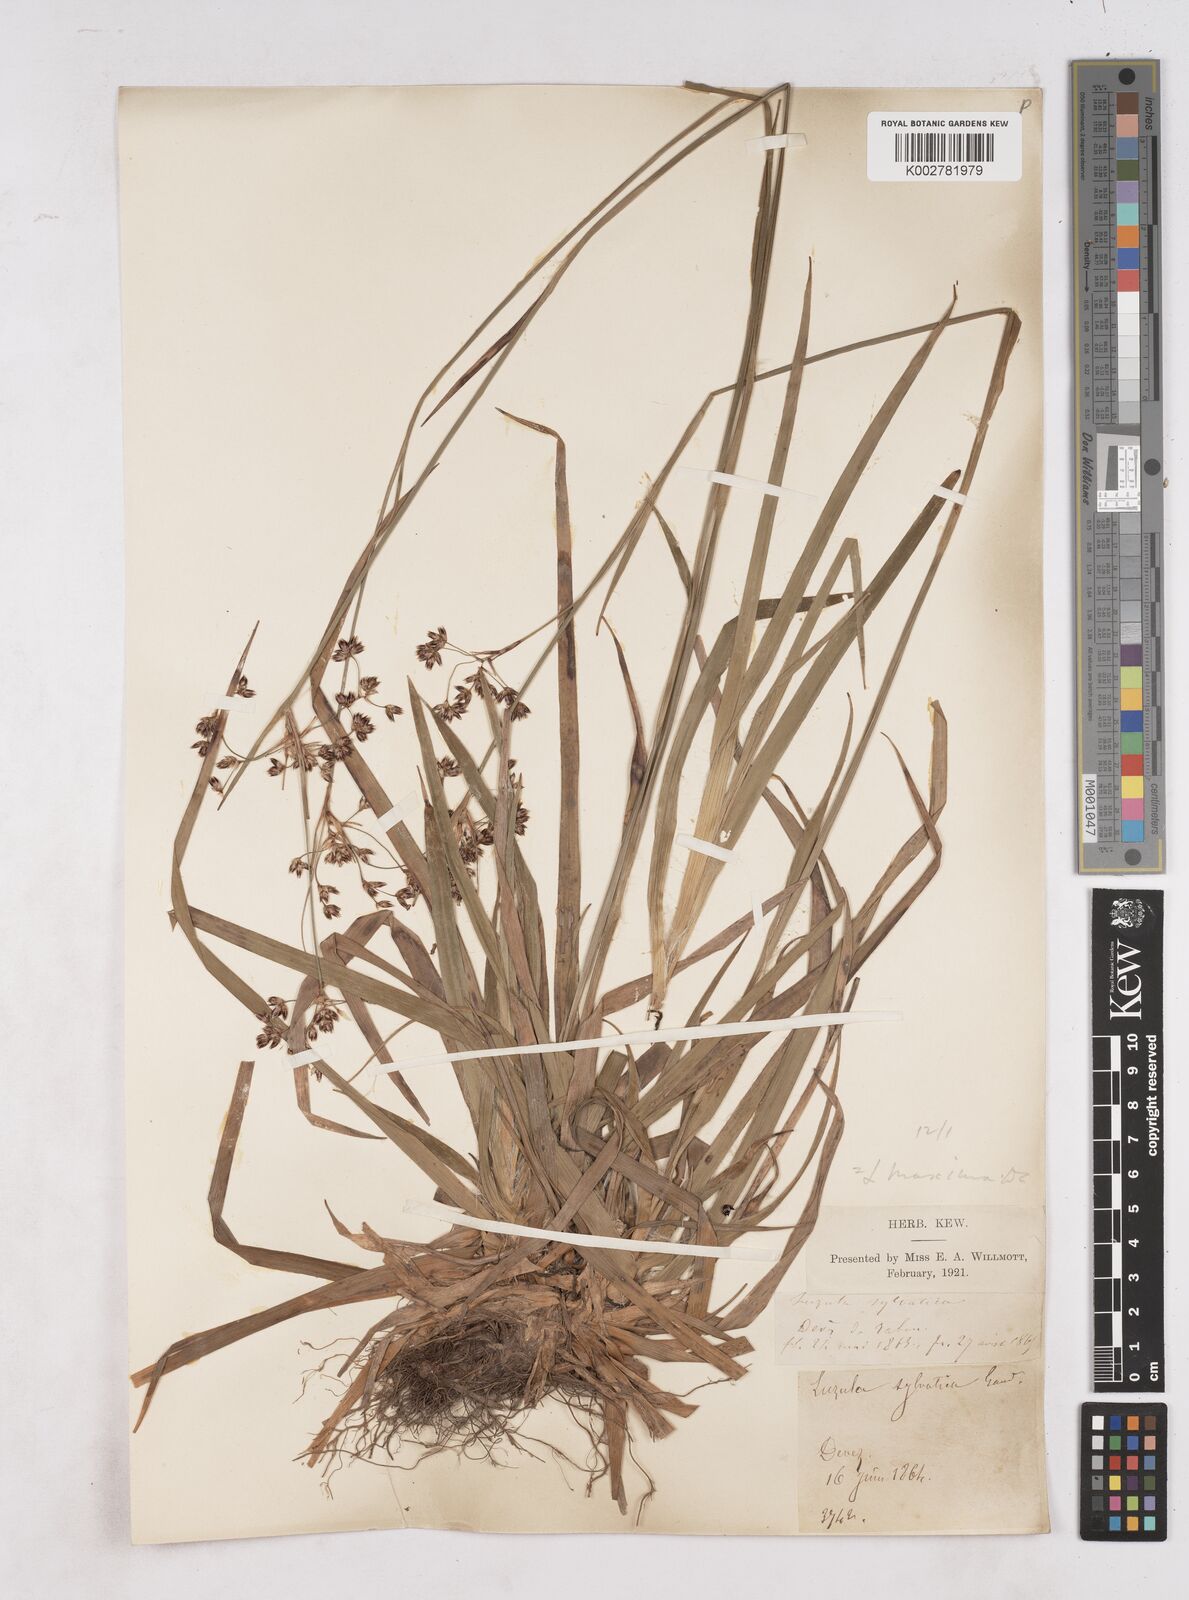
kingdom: Plantae
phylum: Tracheophyta
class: Liliopsida
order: Poales
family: Juncaceae
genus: Luzula
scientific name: Luzula sylvatica
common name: Great wood-rush
